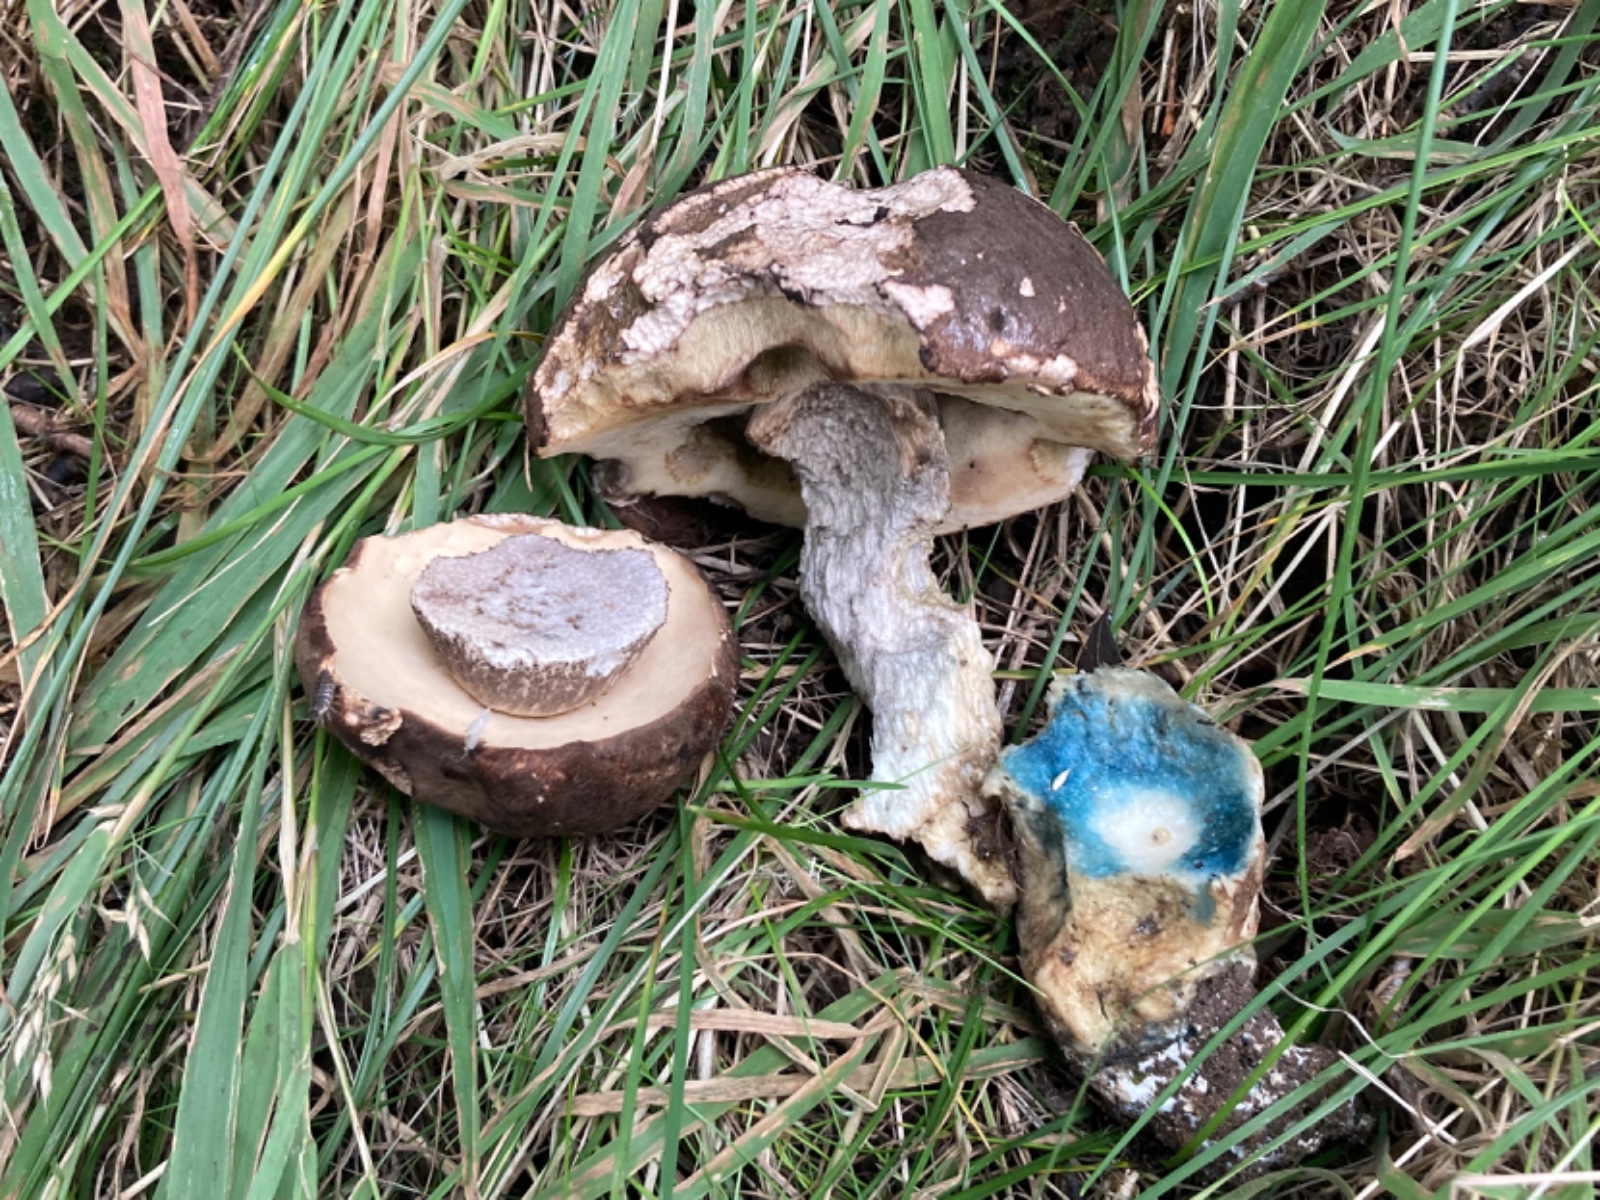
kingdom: Fungi
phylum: Basidiomycota
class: Agaricomycetes
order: Boletales
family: Boletaceae
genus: Leccinum
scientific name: Leccinum duriusculum
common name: poppel-skælrørhat
